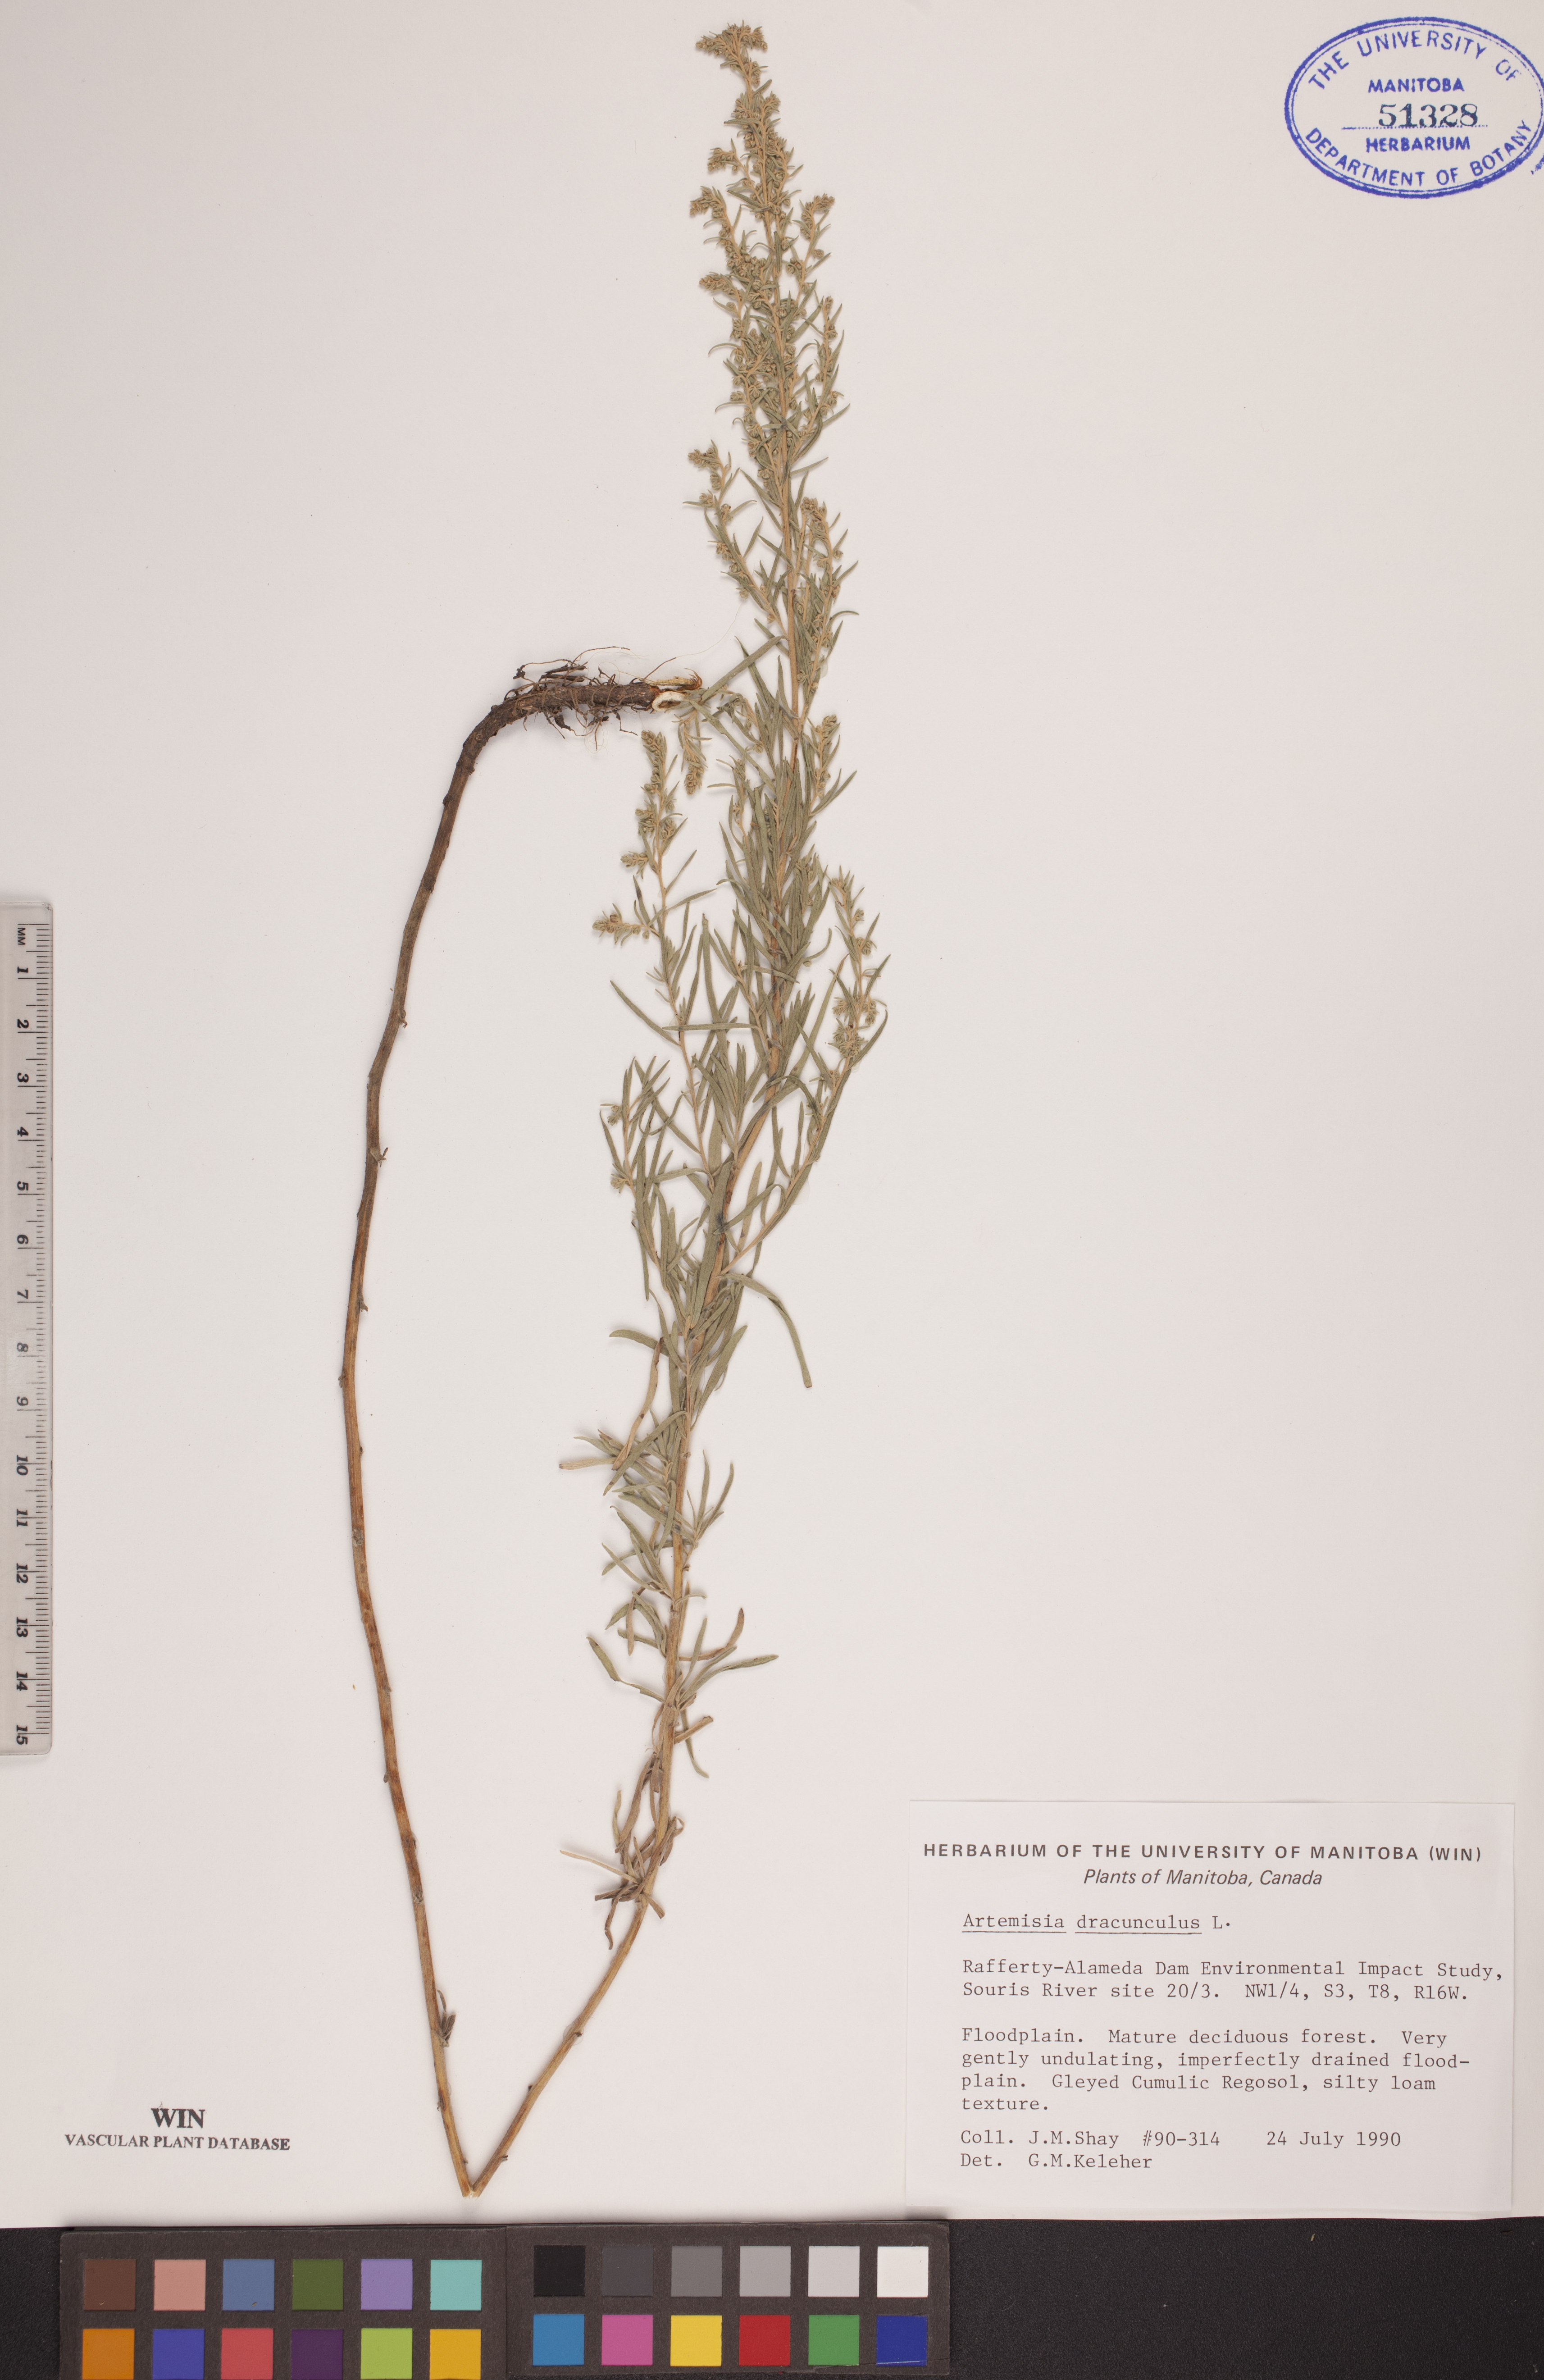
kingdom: Plantae
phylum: Tracheophyta
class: Magnoliopsida
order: Asterales
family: Asteraceae
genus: Artemisia
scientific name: Artemisia dracunculus
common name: Tarragon
